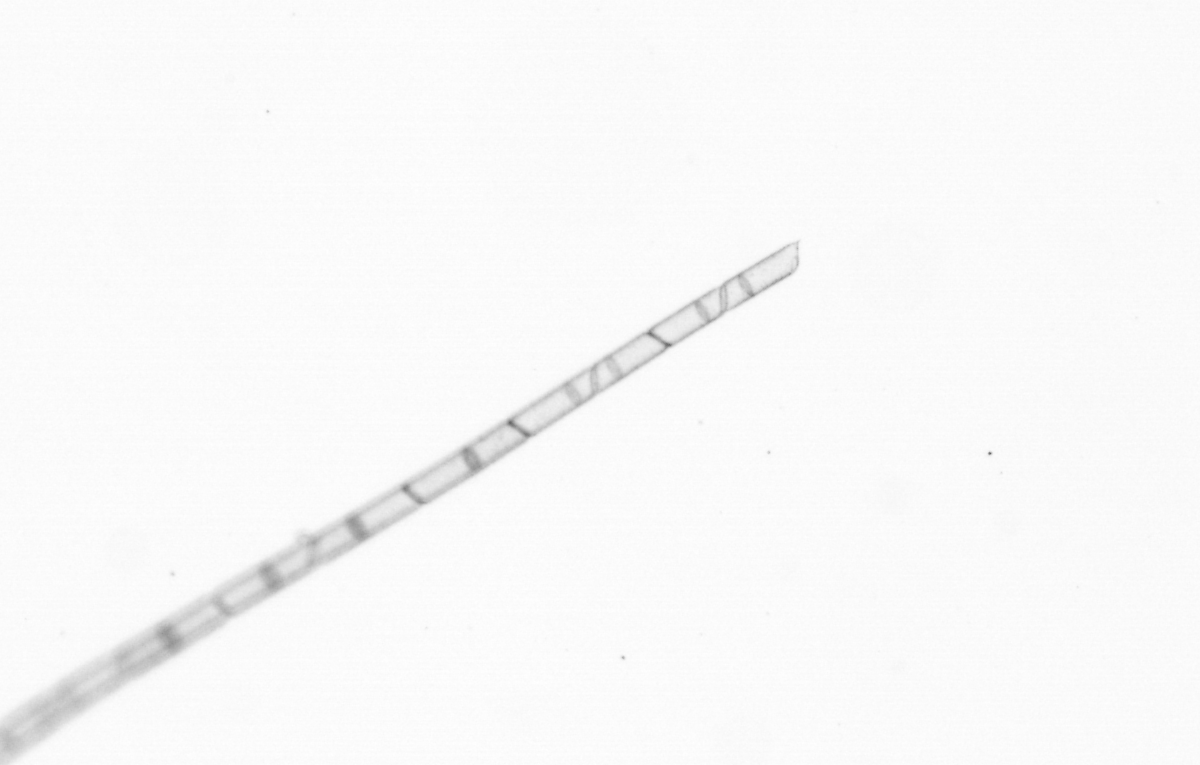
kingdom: Chromista
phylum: Ochrophyta
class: Bacillariophyceae
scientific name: Bacillariophyceae
